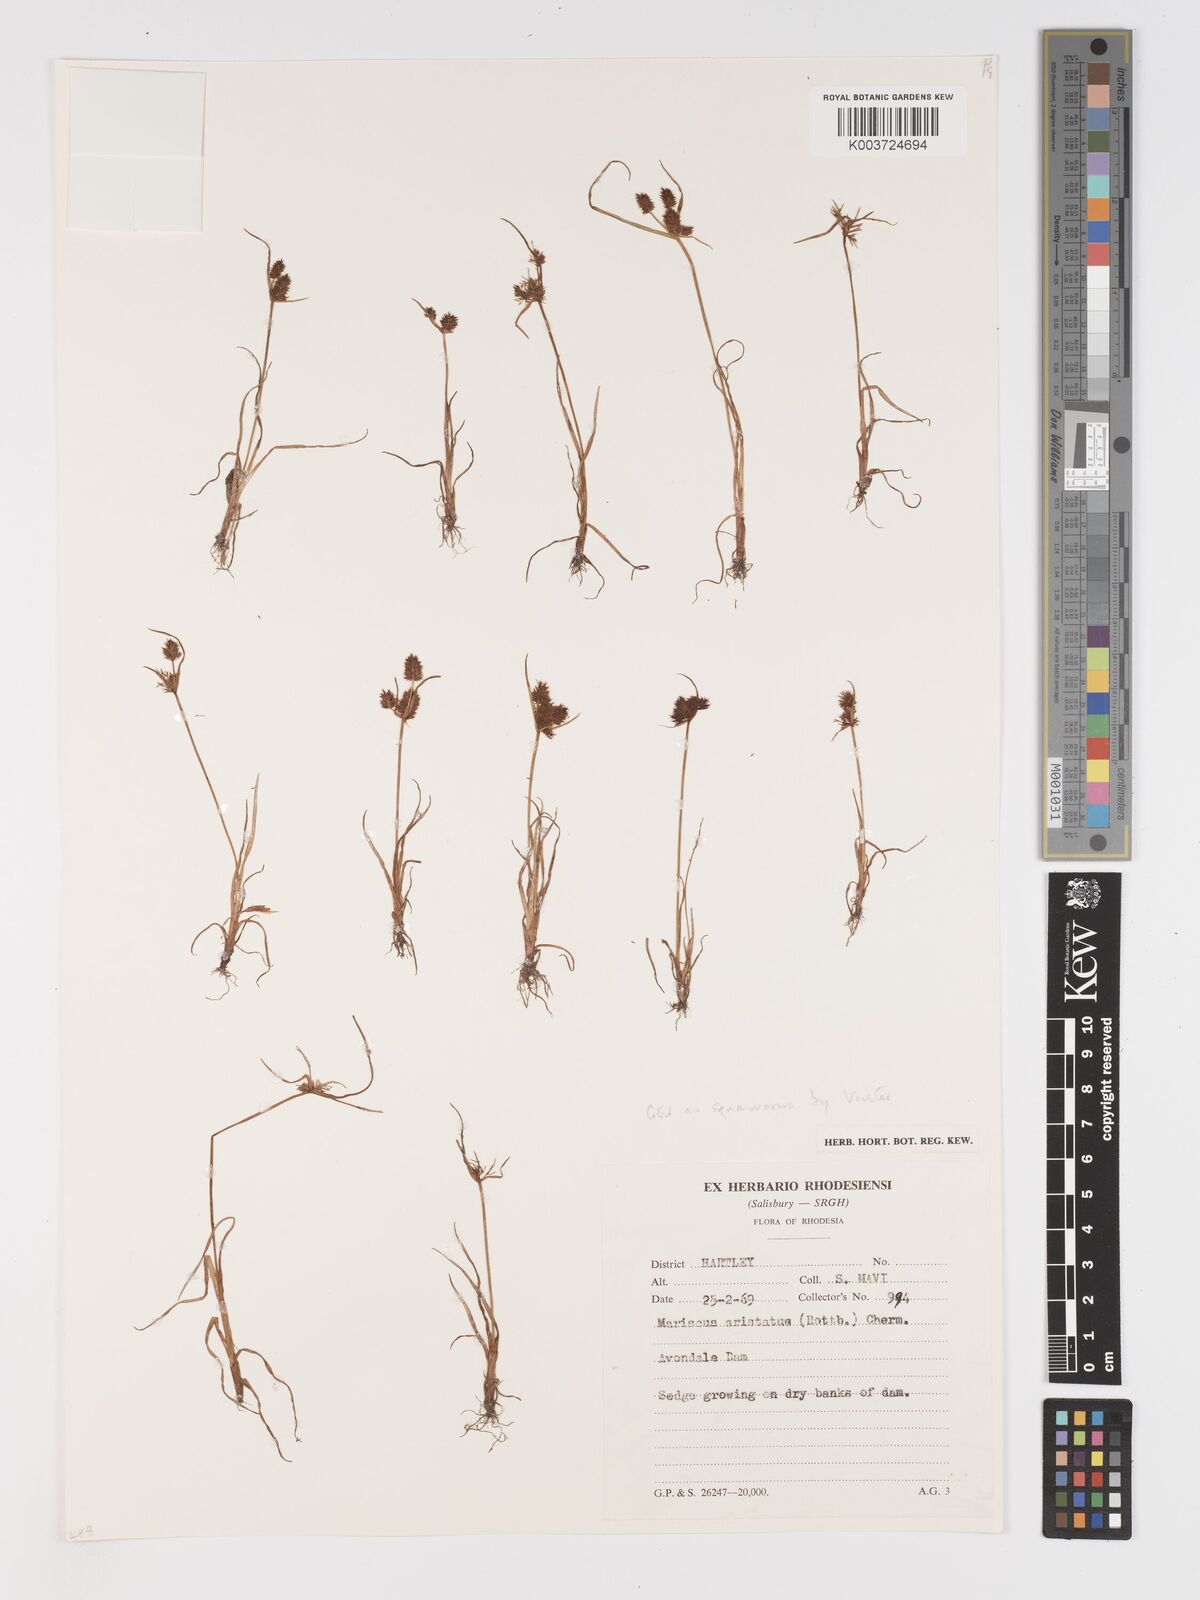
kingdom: Plantae
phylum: Tracheophyta
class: Liliopsida
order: Poales
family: Cyperaceae
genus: Cyperus
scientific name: Cyperus squarrosus
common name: Awned cyperus
